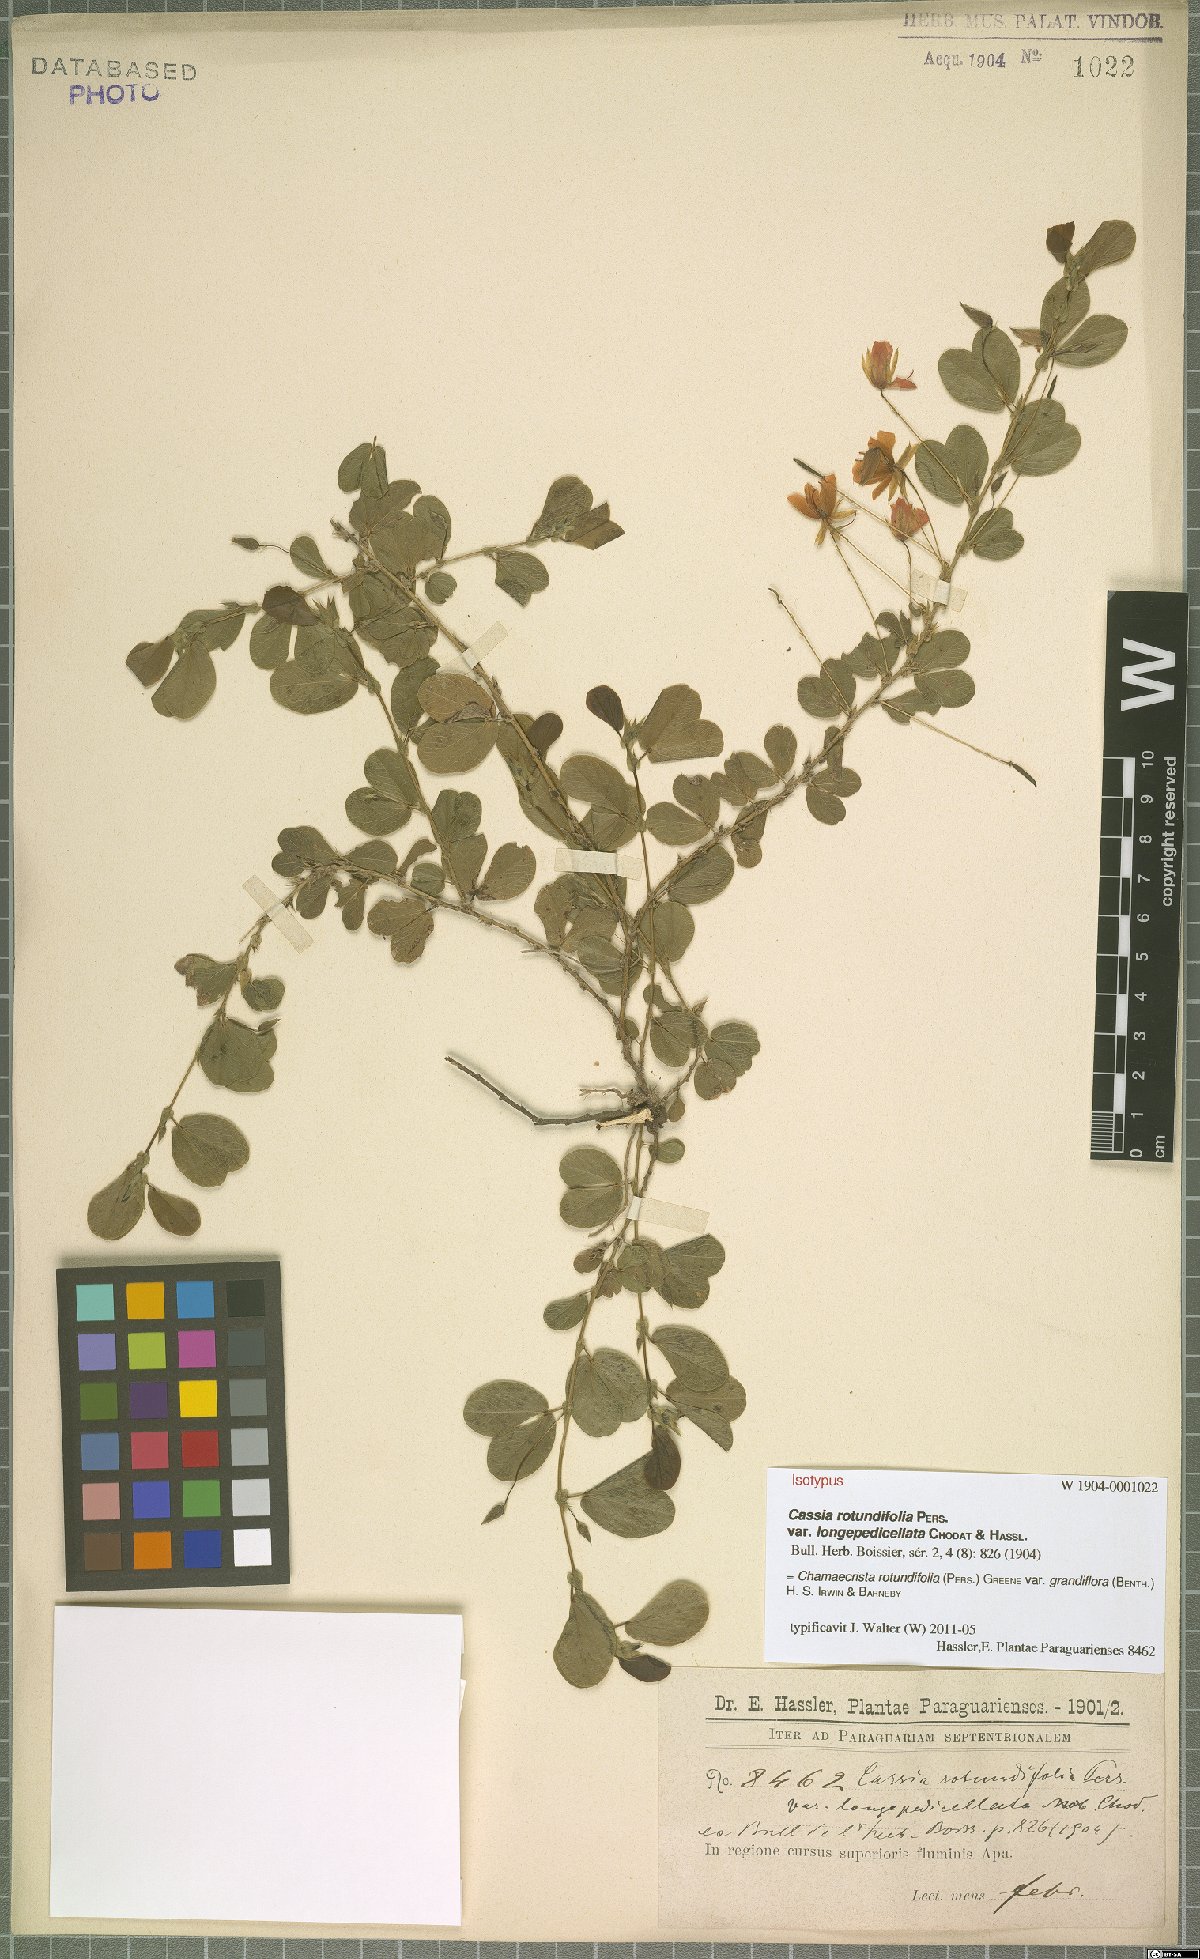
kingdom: Plantae
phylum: Tracheophyta
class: Magnoliopsida
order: Fabales
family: Fabaceae
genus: Chamaecrista
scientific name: Chamaecrista rotundifolia
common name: Round-leaf cassia
